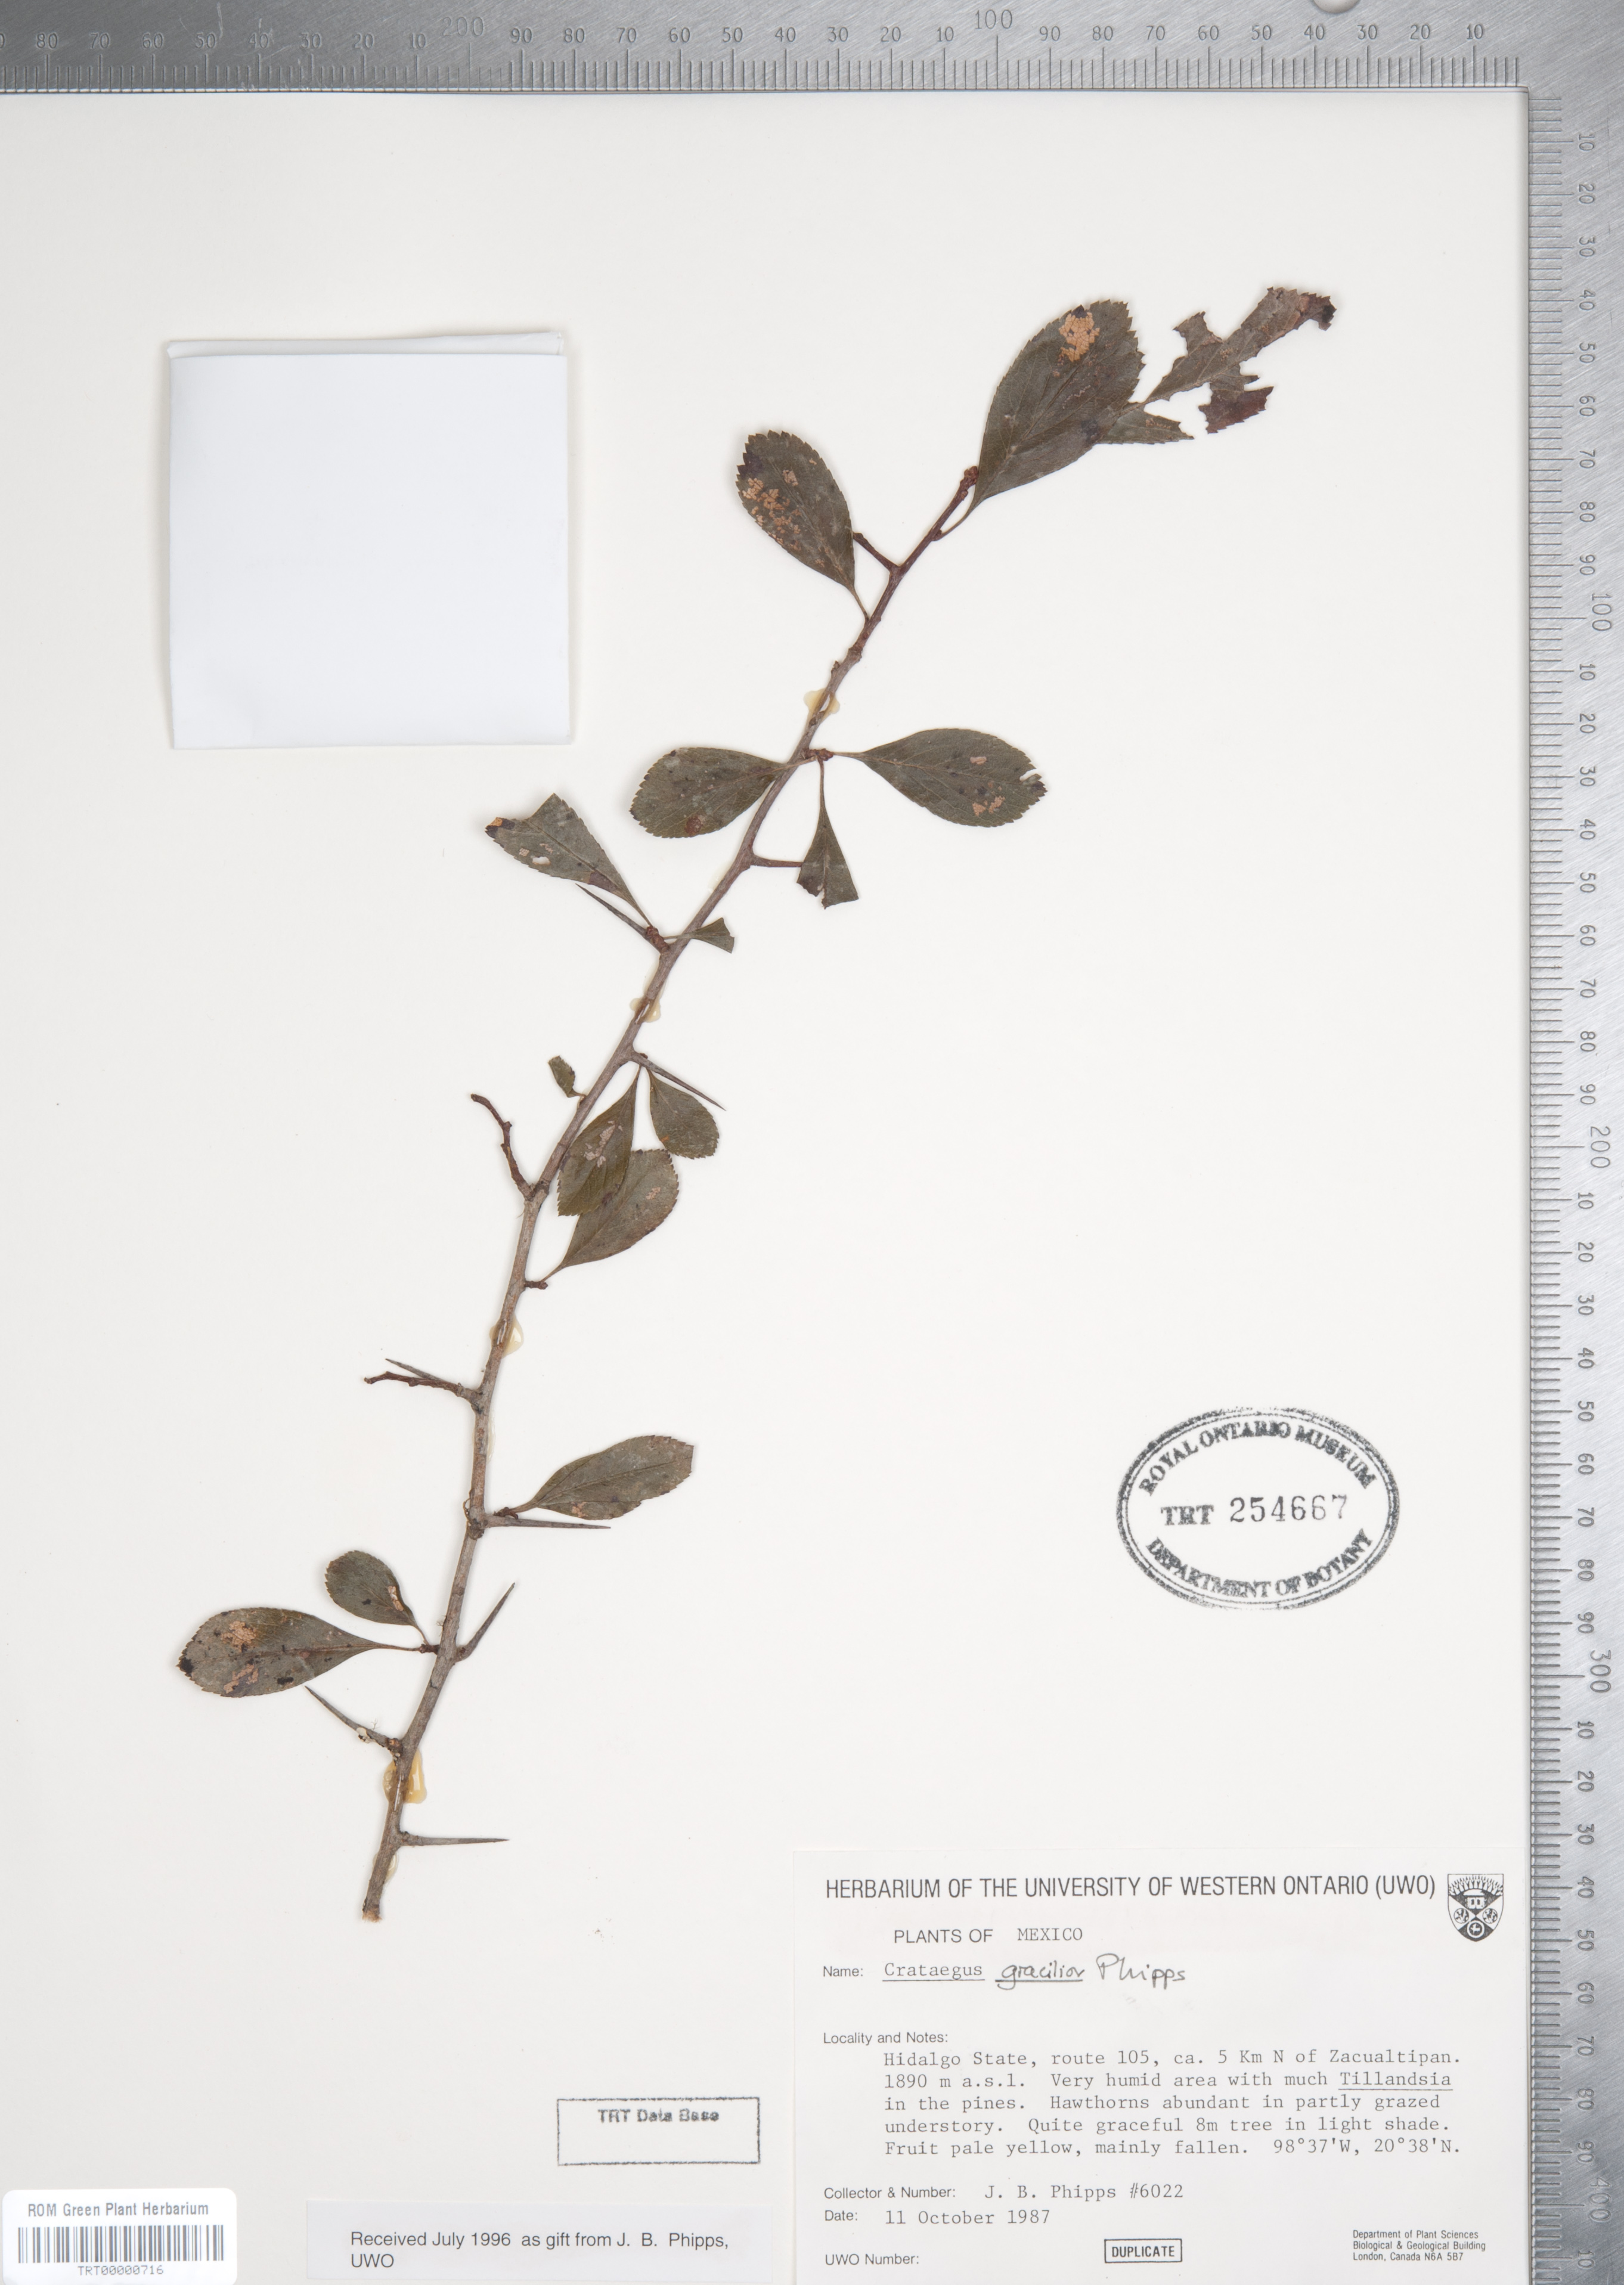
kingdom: Plantae
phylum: Tracheophyta
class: Magnoliopsida
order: Rosales
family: Rosaceae
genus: Crataegus
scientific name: Crataegus gracilior
